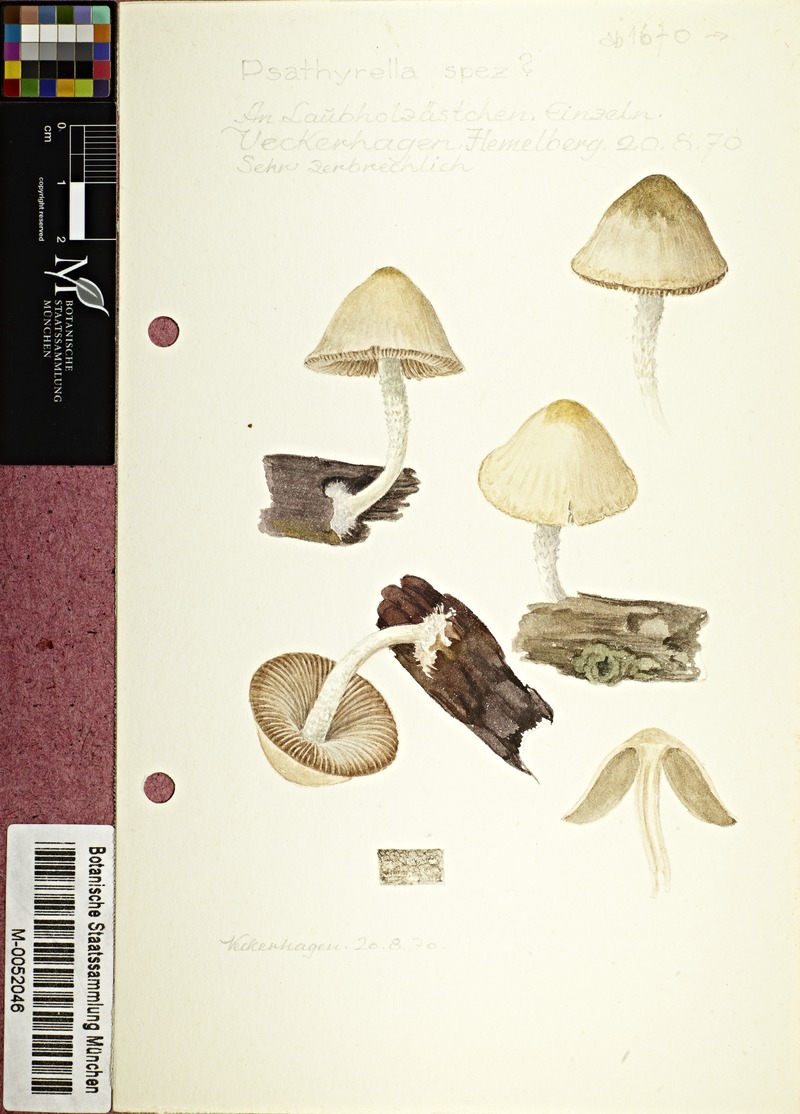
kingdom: Fungi
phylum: Basidiomycota
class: Agaricomycetes
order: Agaricales
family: Psathyrellaceae
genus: Psathyrella
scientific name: Psathyrella
